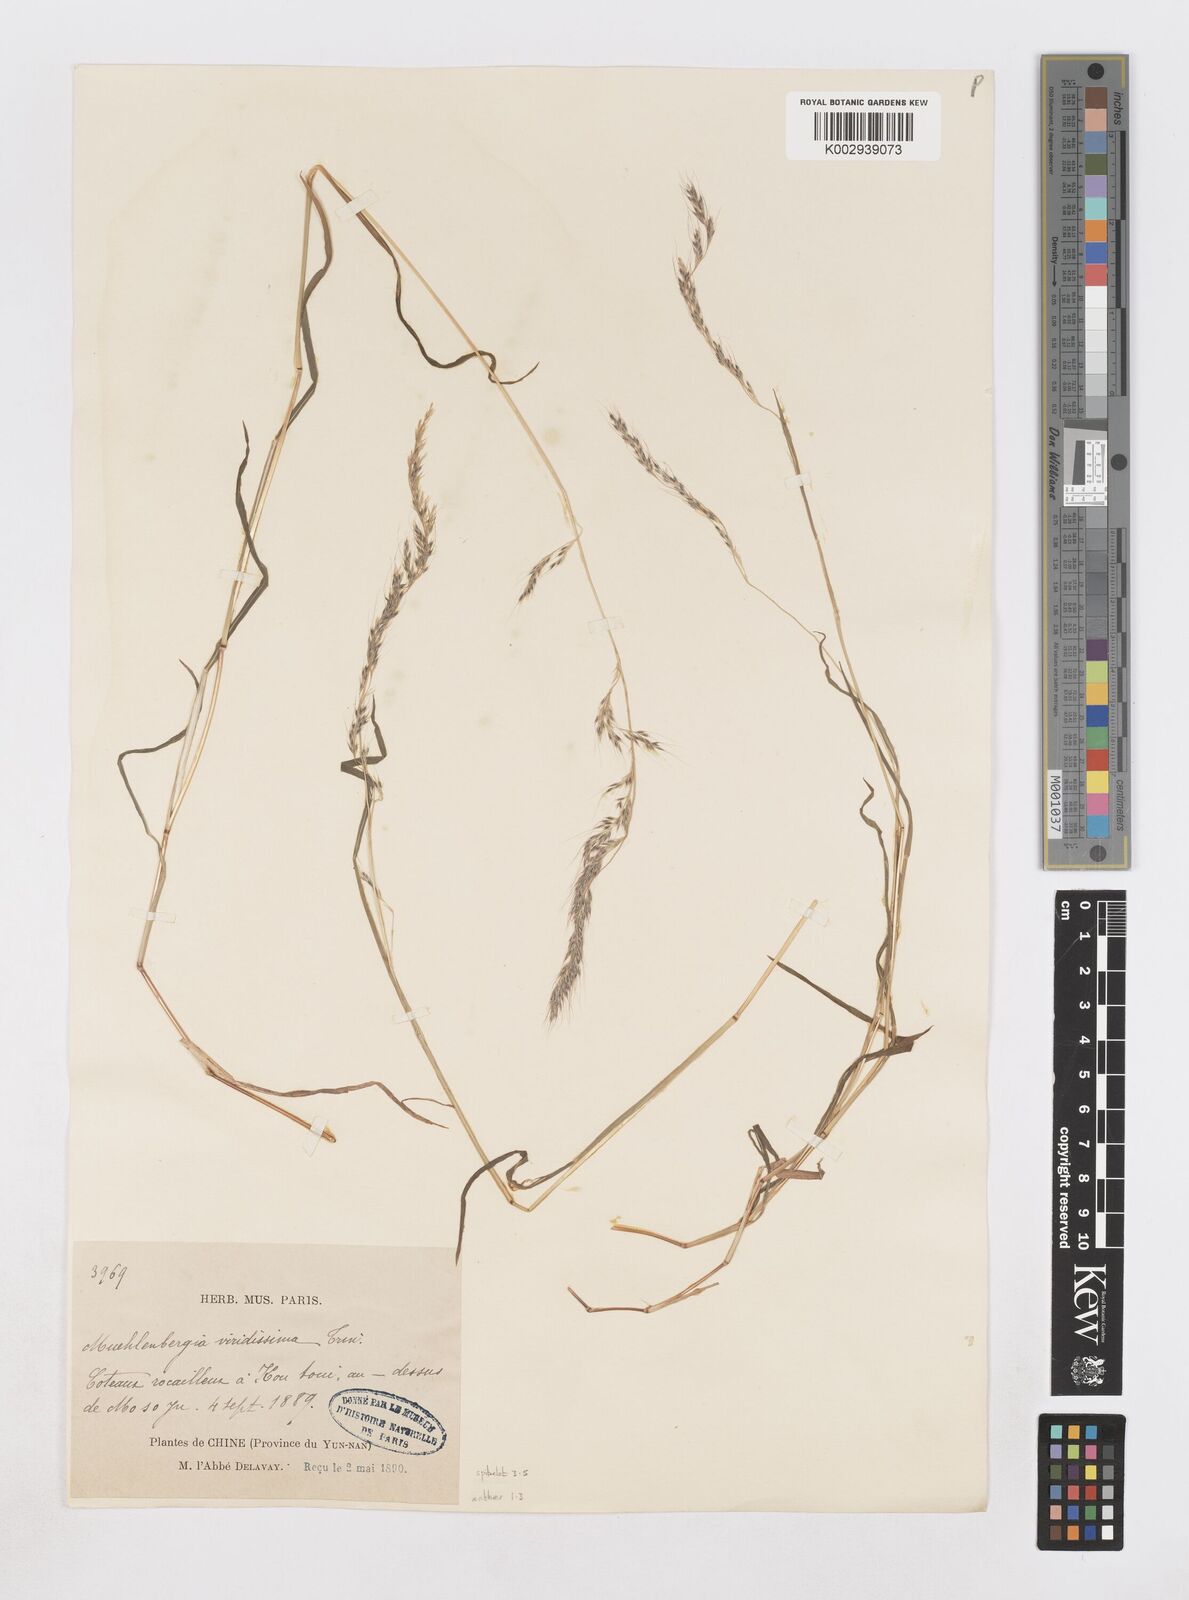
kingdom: Plantae
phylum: Tracheophyta
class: Liliopsida
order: Poales
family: Poaceae
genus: Muhlenbergia
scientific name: Muhlenbergia himalayensis
